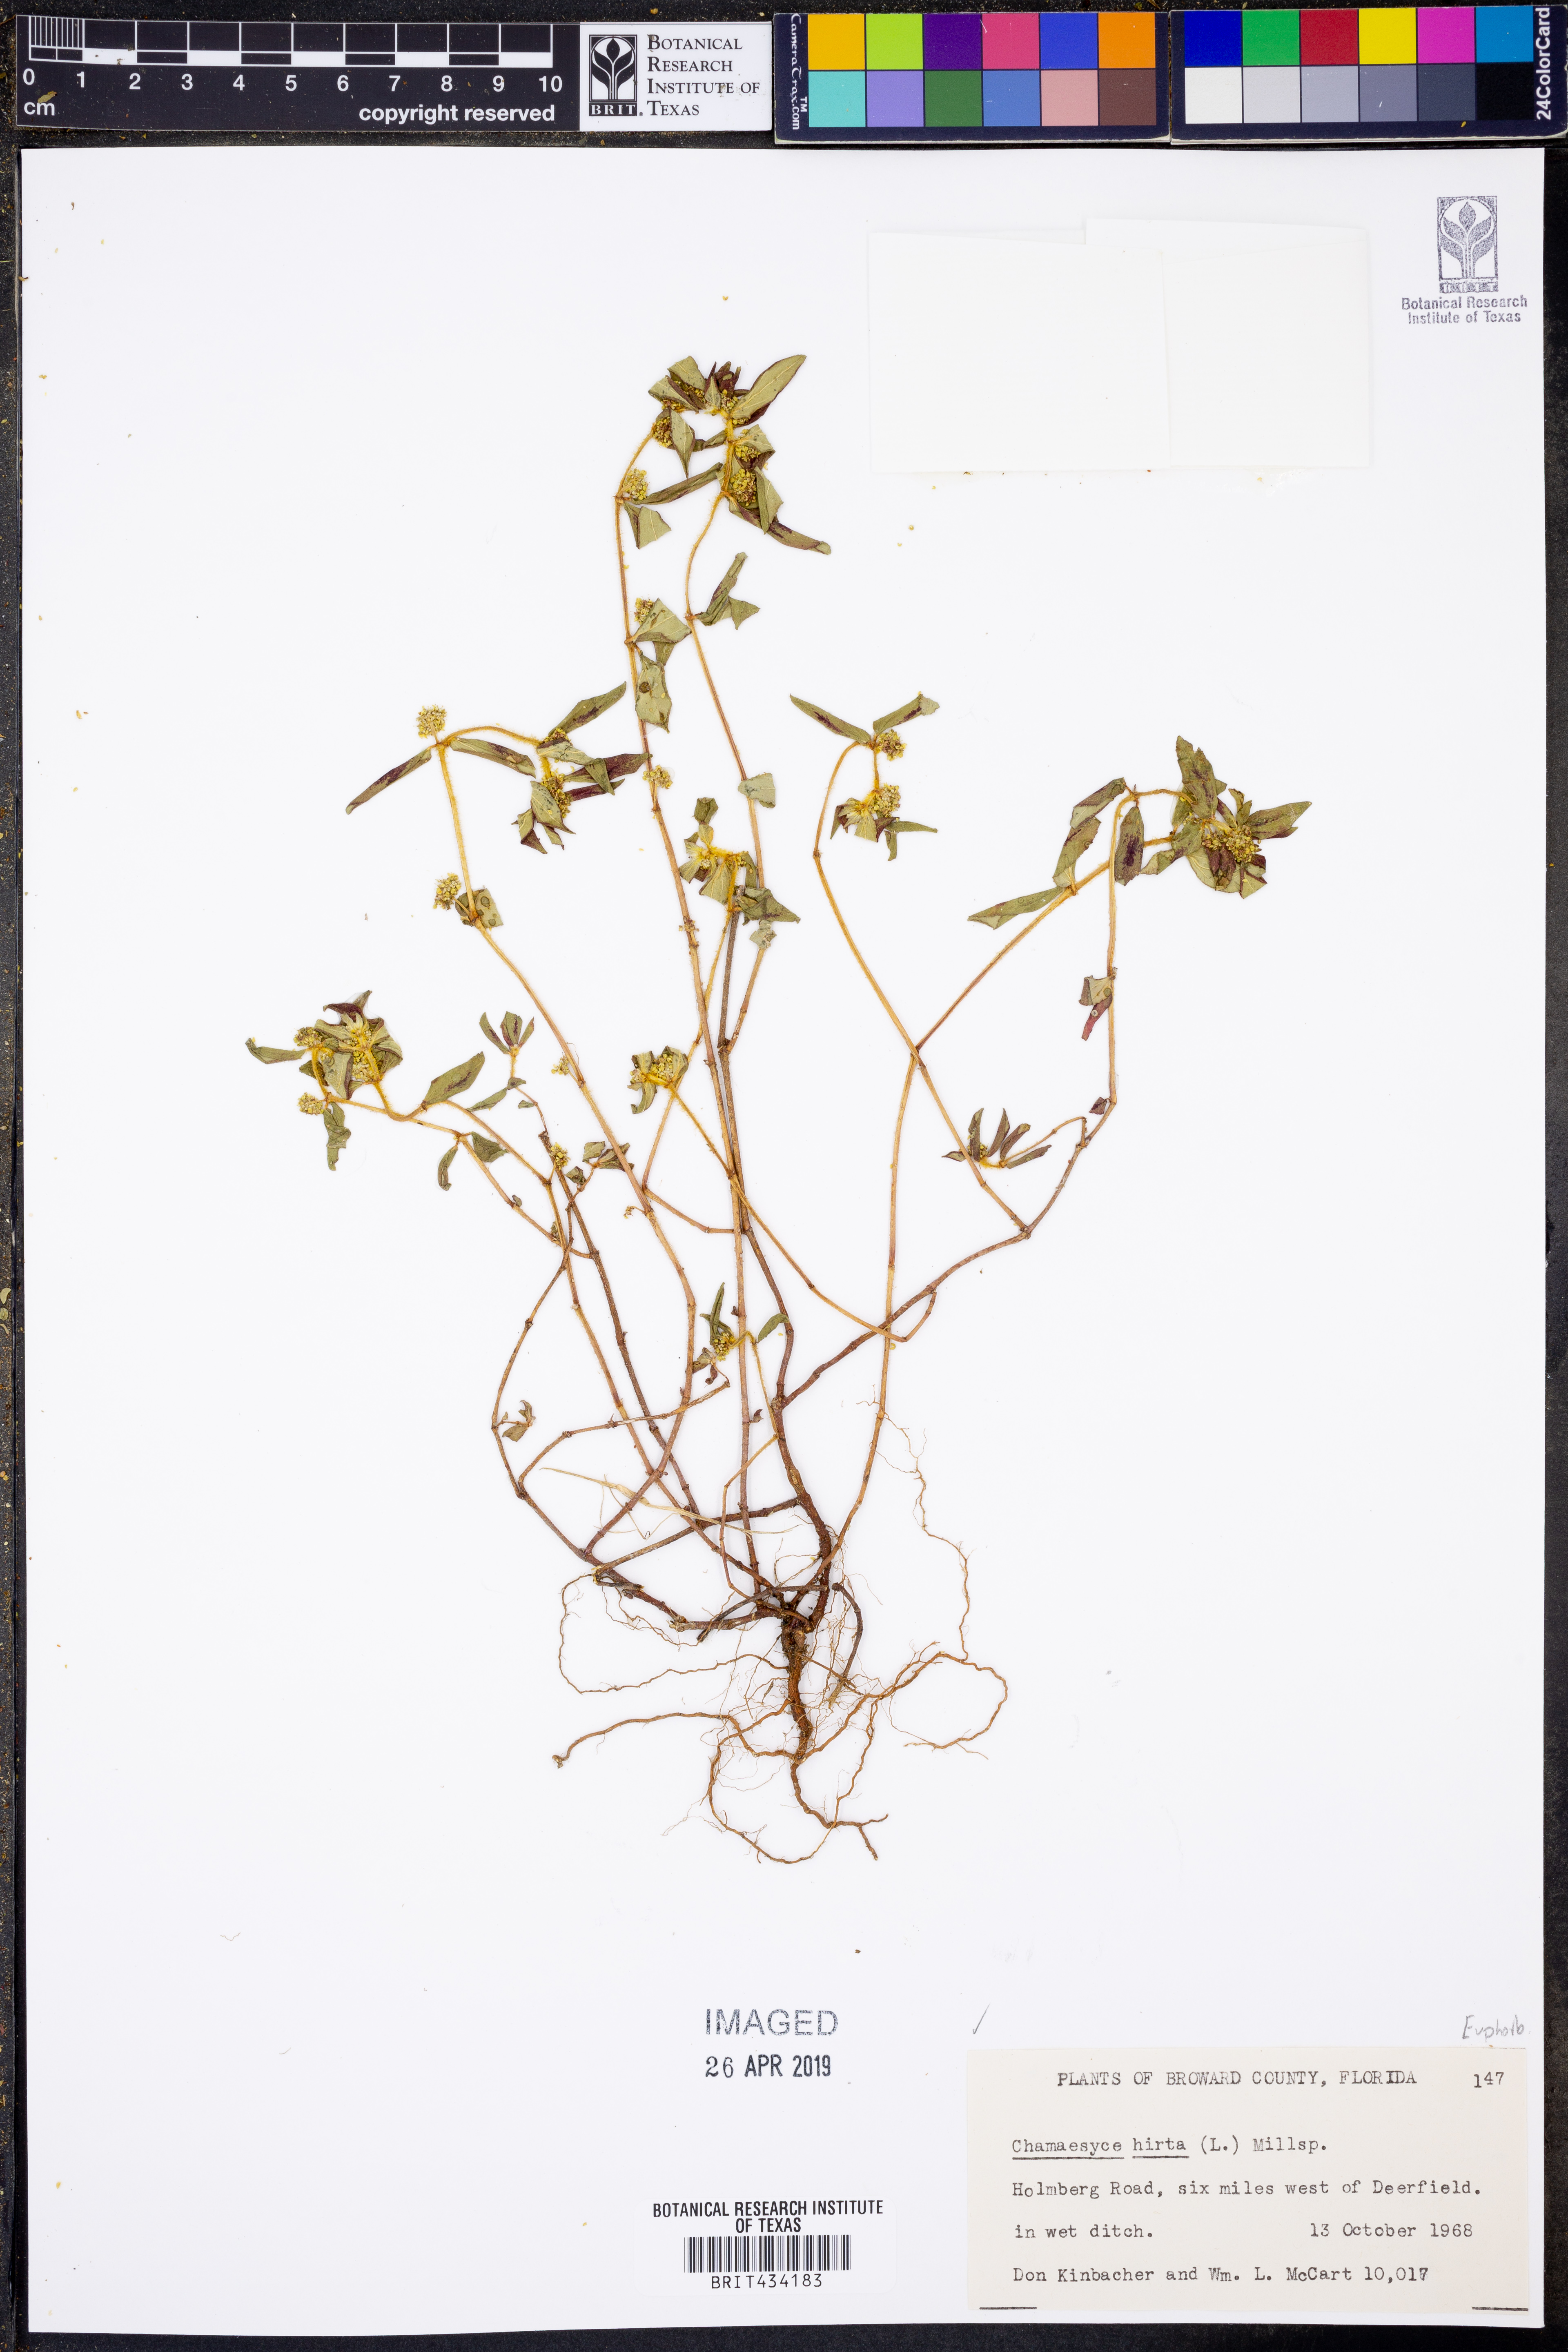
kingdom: Plantae
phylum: Tracheophyta
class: Magnoliopsida
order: Malpighiales
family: Euphorbiaceae
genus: Euphorbia
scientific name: Euphorbia hirta
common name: Pillpod sandmat
